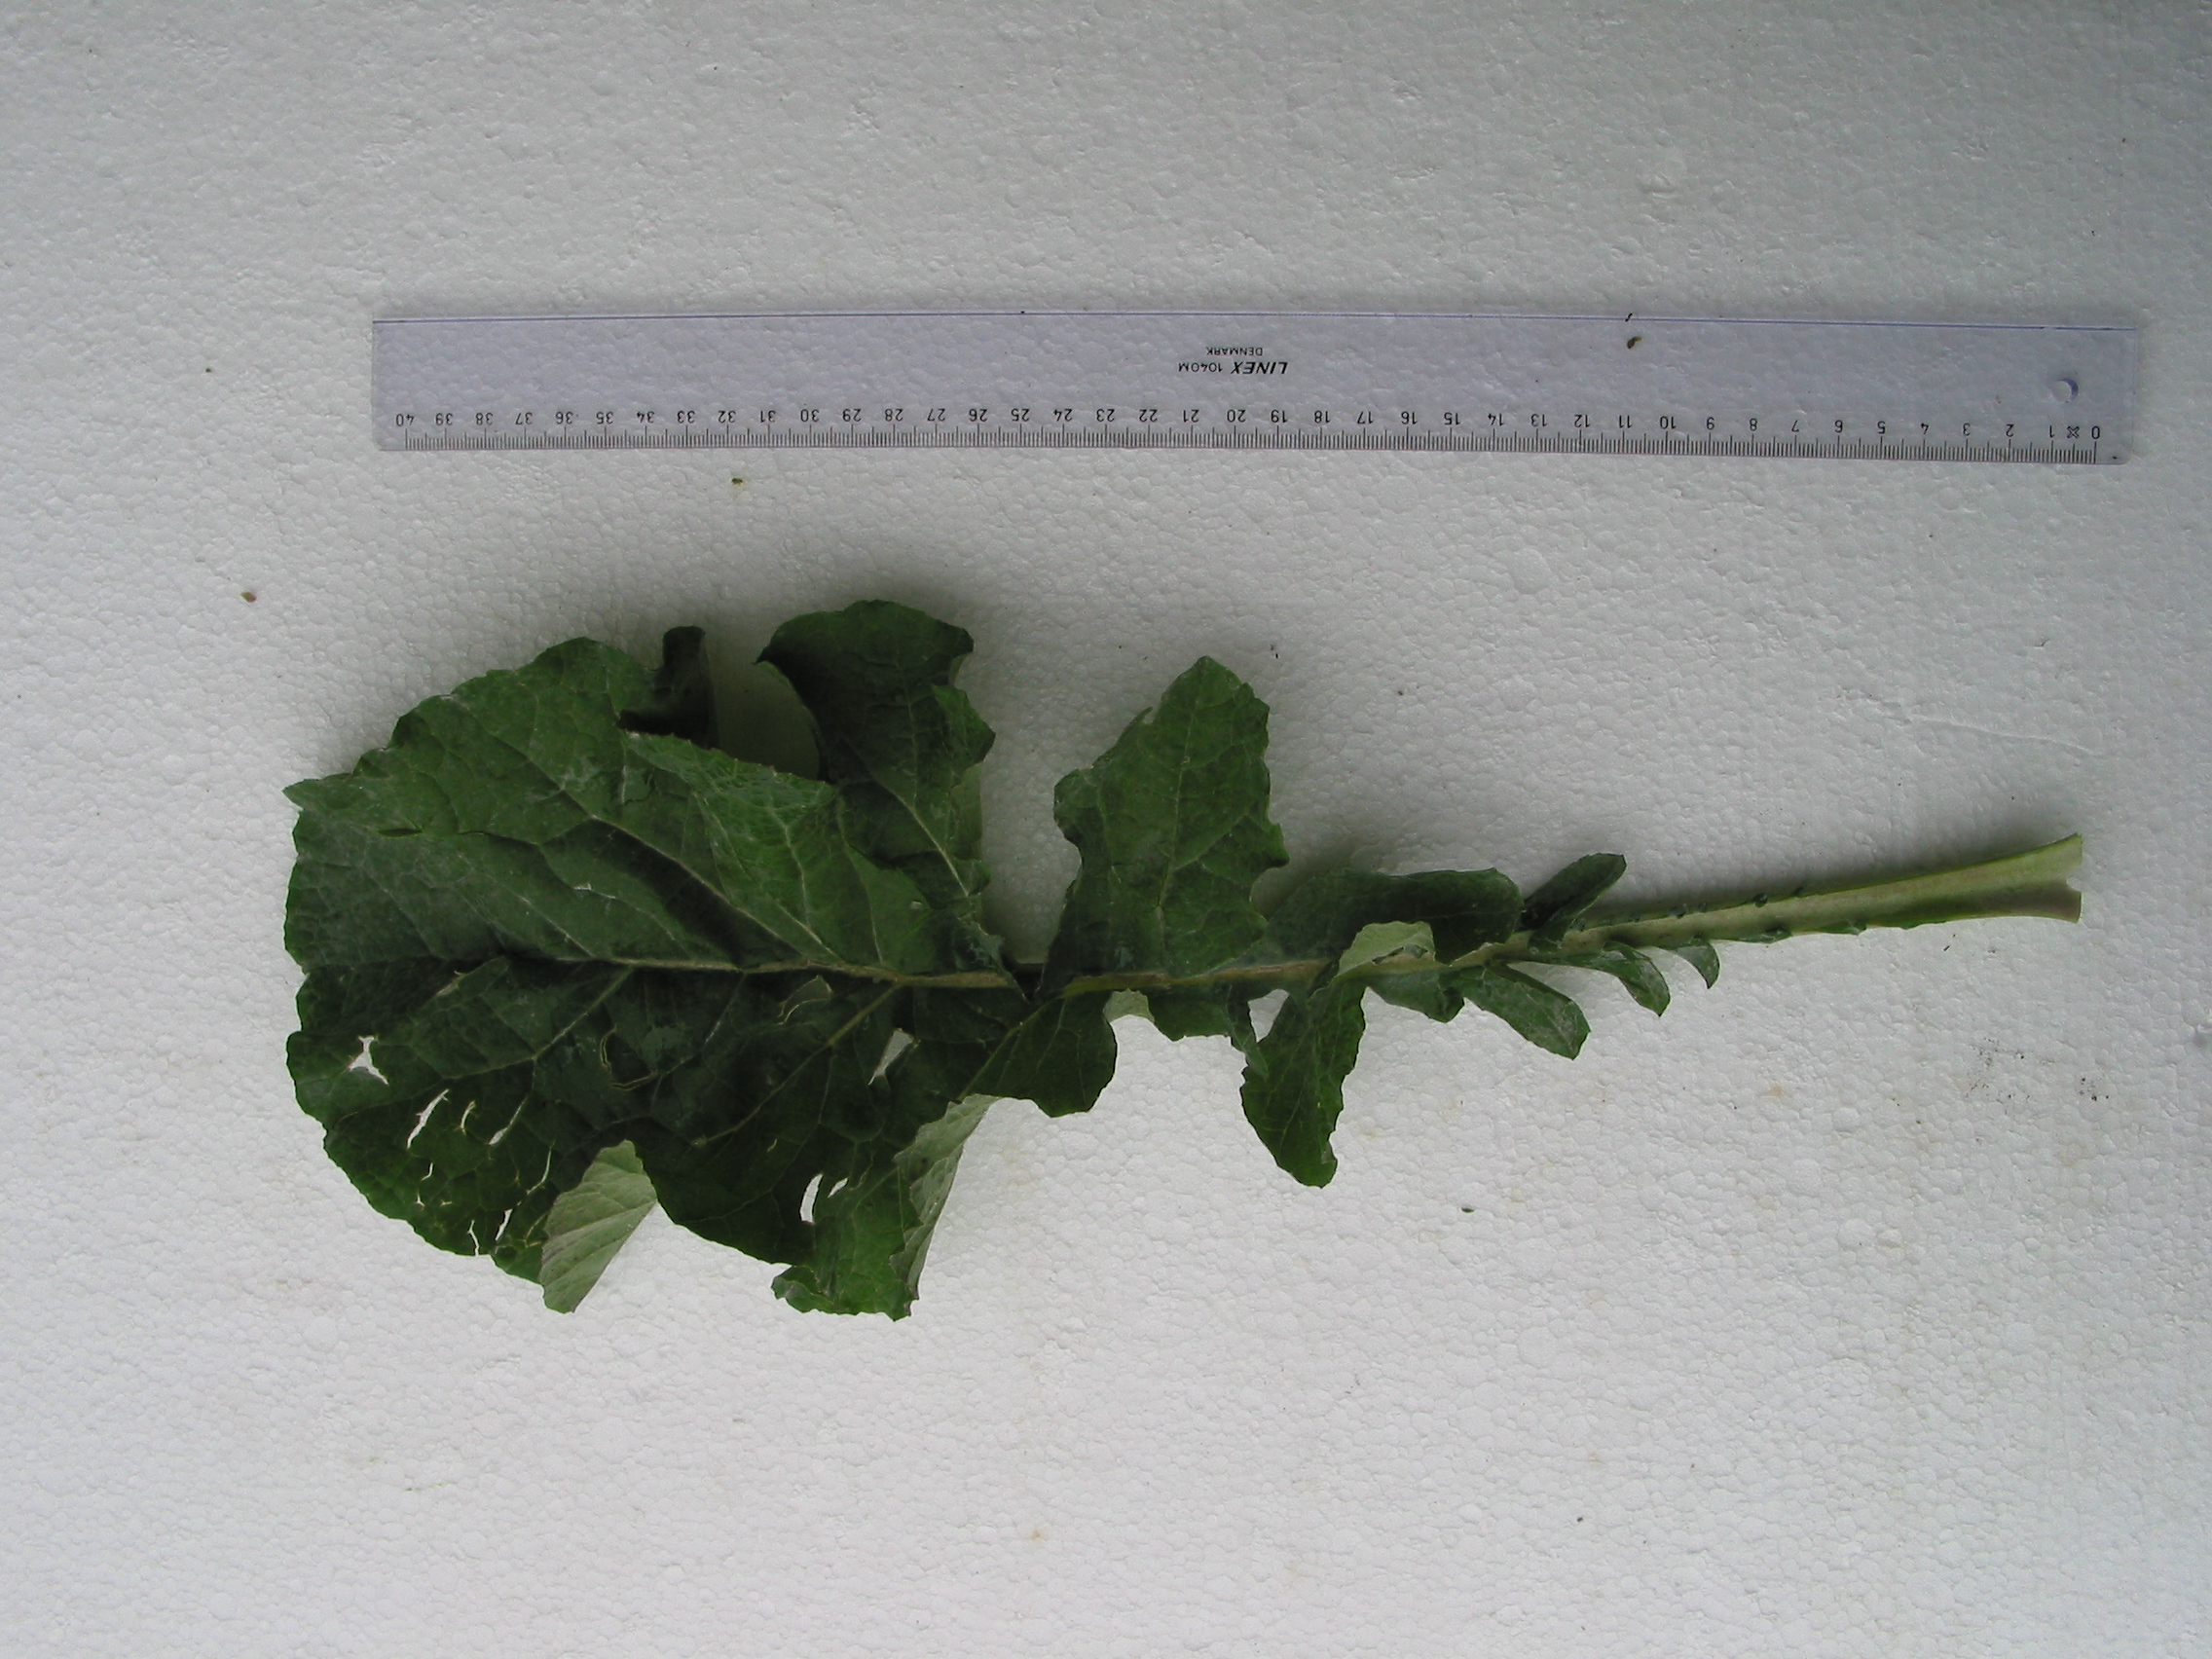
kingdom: Plantae
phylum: Tracheophyta
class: Magnoliopsida
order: Brassicales
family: Brassicaceae
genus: Brassica
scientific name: Brassica napus
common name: Rape
